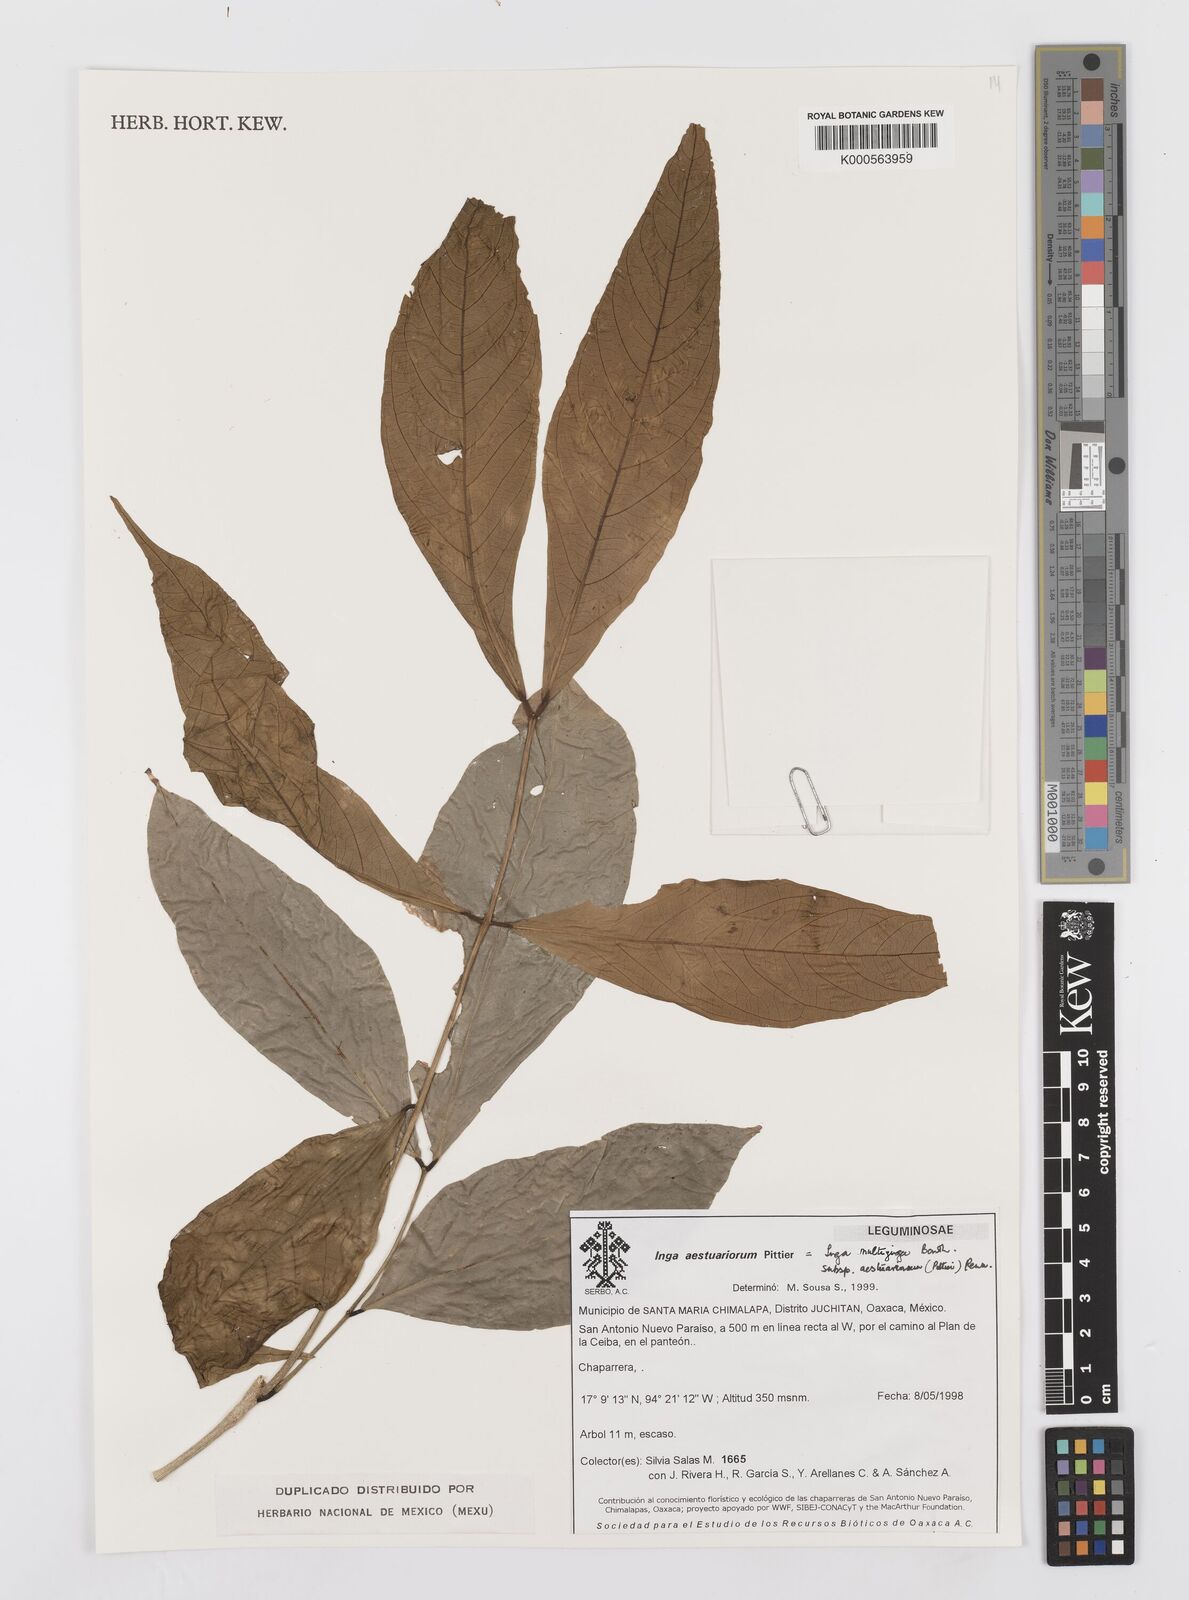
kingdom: Plantae
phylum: Tracheophyta
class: Magnoliopsida
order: Fabales
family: Fabaceae
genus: Inga
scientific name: Inga multijuga
